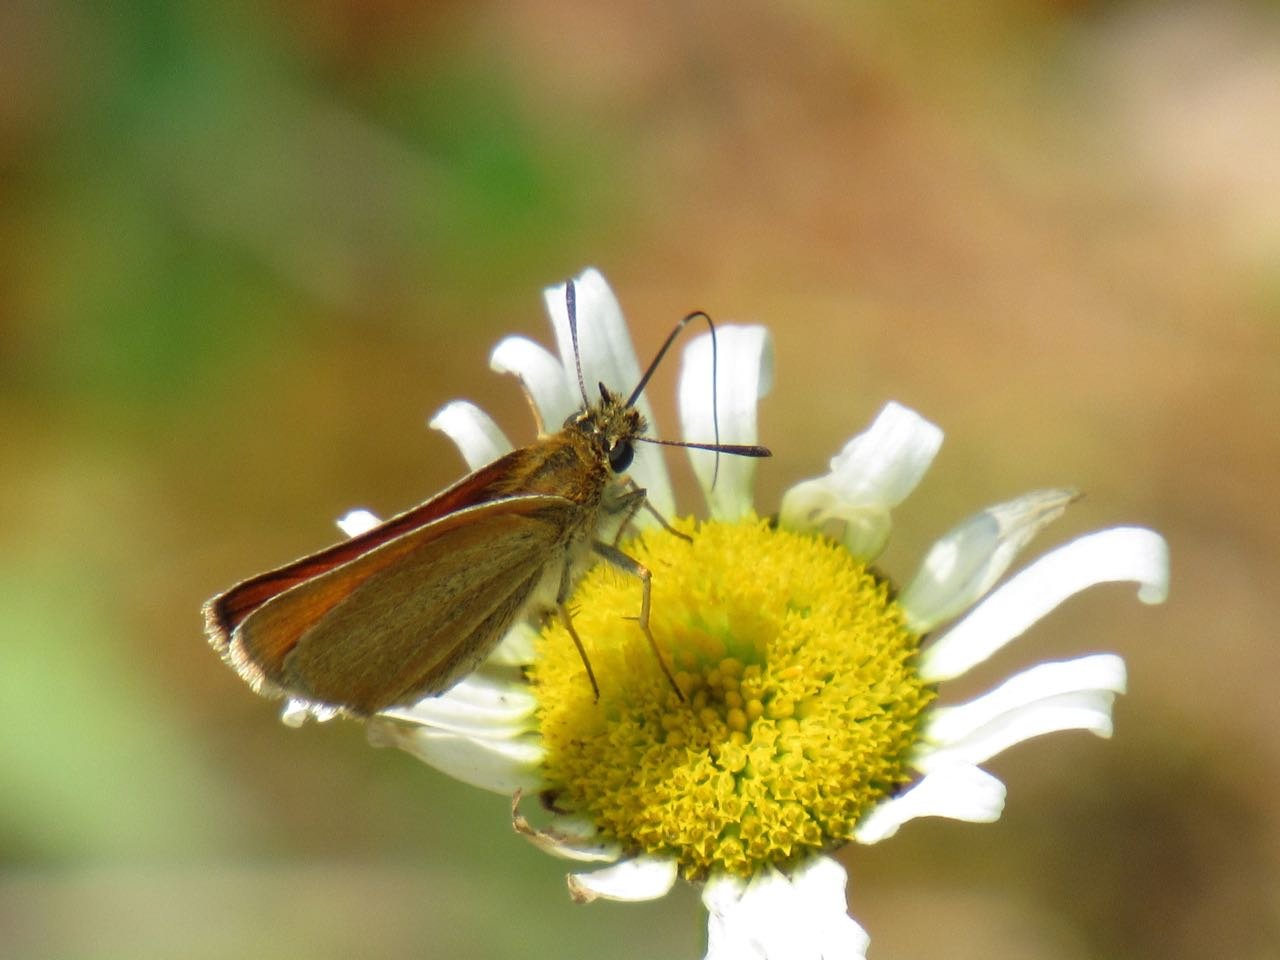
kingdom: Animalia
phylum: Arthropoda
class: Insecta
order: Lepidoptera
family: Hesperiidae
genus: Thymelicus
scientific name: Thymelicus lineola
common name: European Skipper
